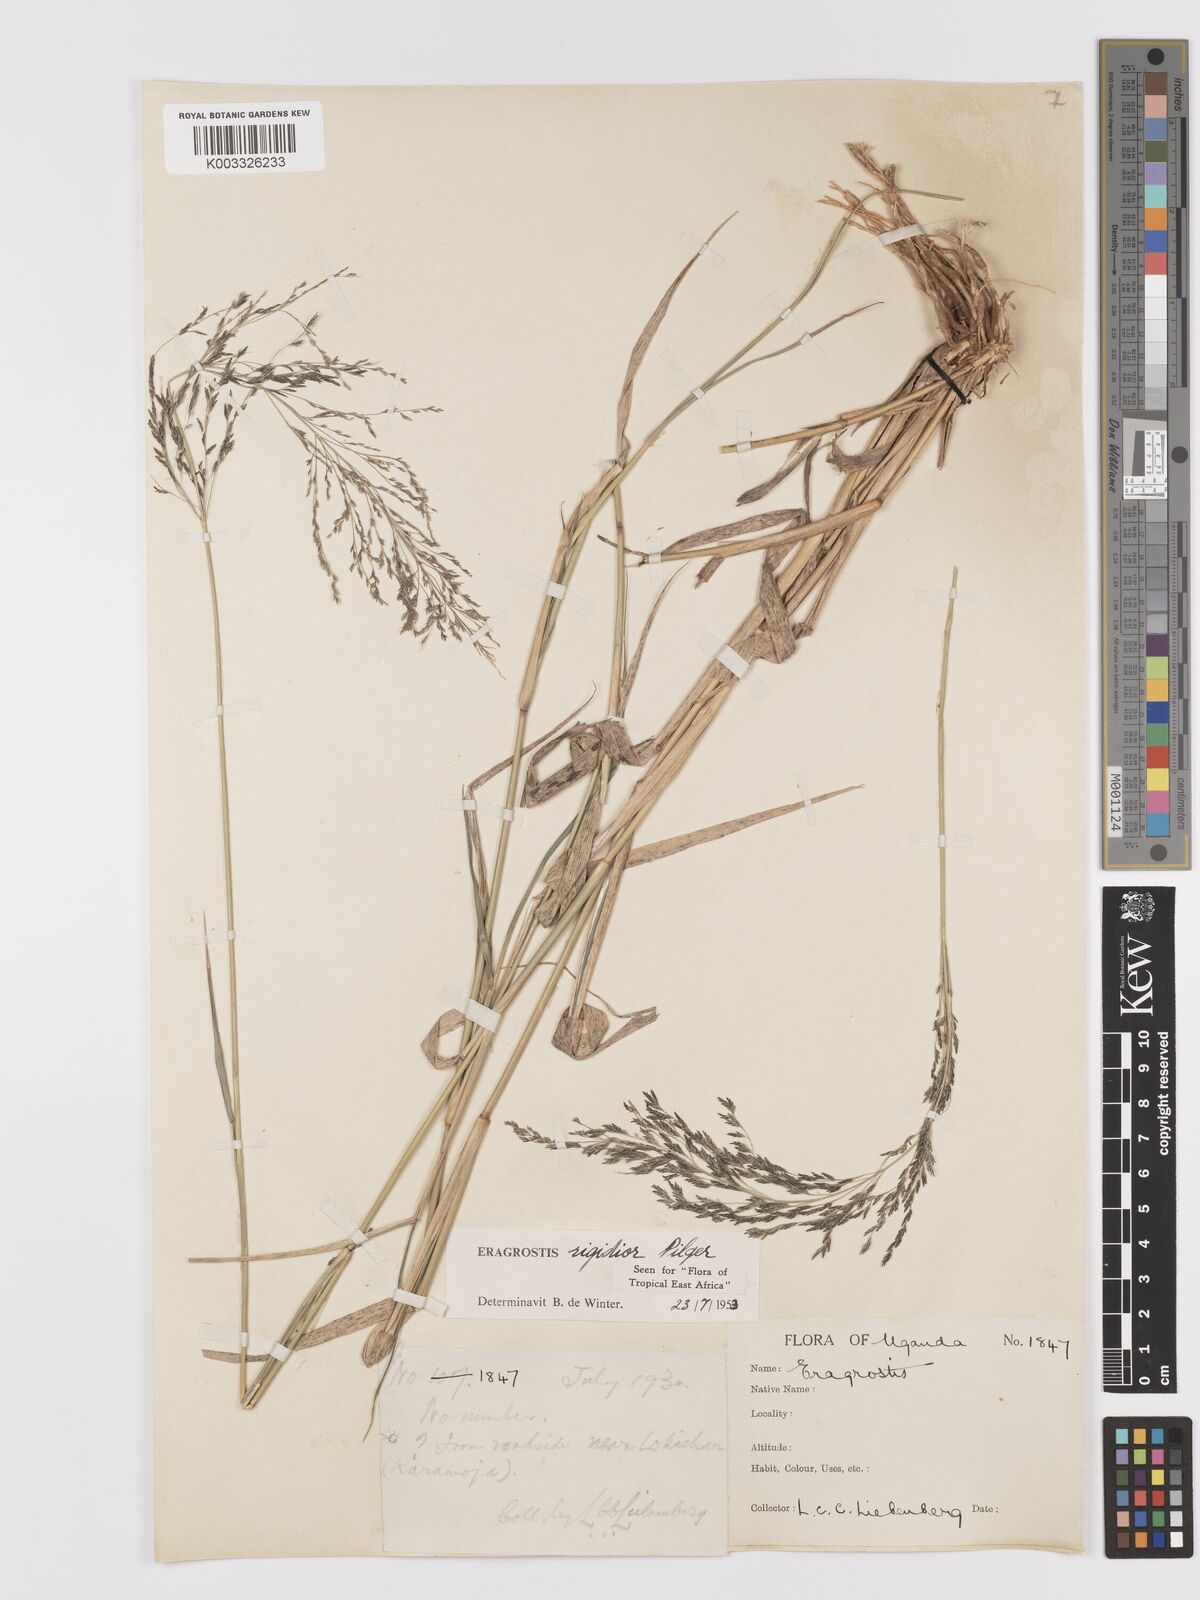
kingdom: Plantae
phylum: Tracheophyta
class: Liliopsida
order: Poales
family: Poaceae
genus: Eragrostis
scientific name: Eragrostis cylindriflora
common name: Cylinderflower lovegrass
